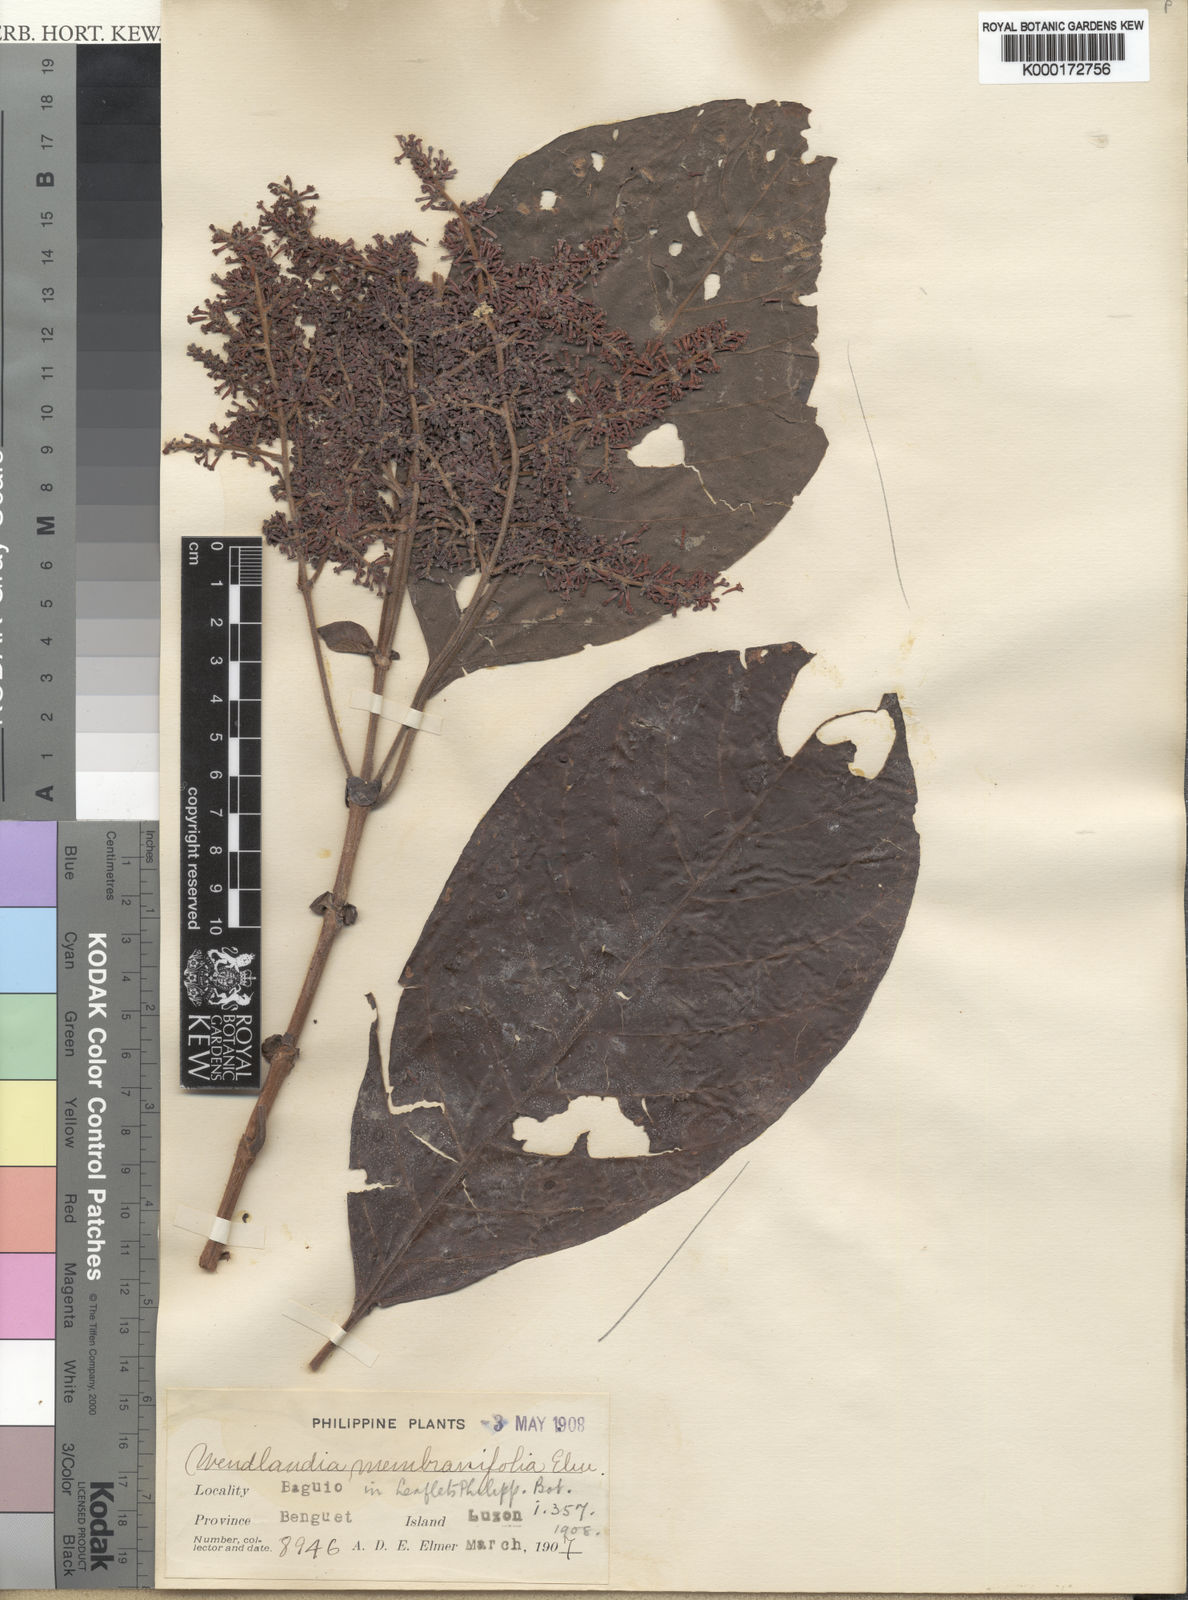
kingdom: Plantae
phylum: Tracheophyta
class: Magnoliopsida
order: Gentianales
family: Rubiaceae
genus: Wendlandia
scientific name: Wendlandia luzoniensis
